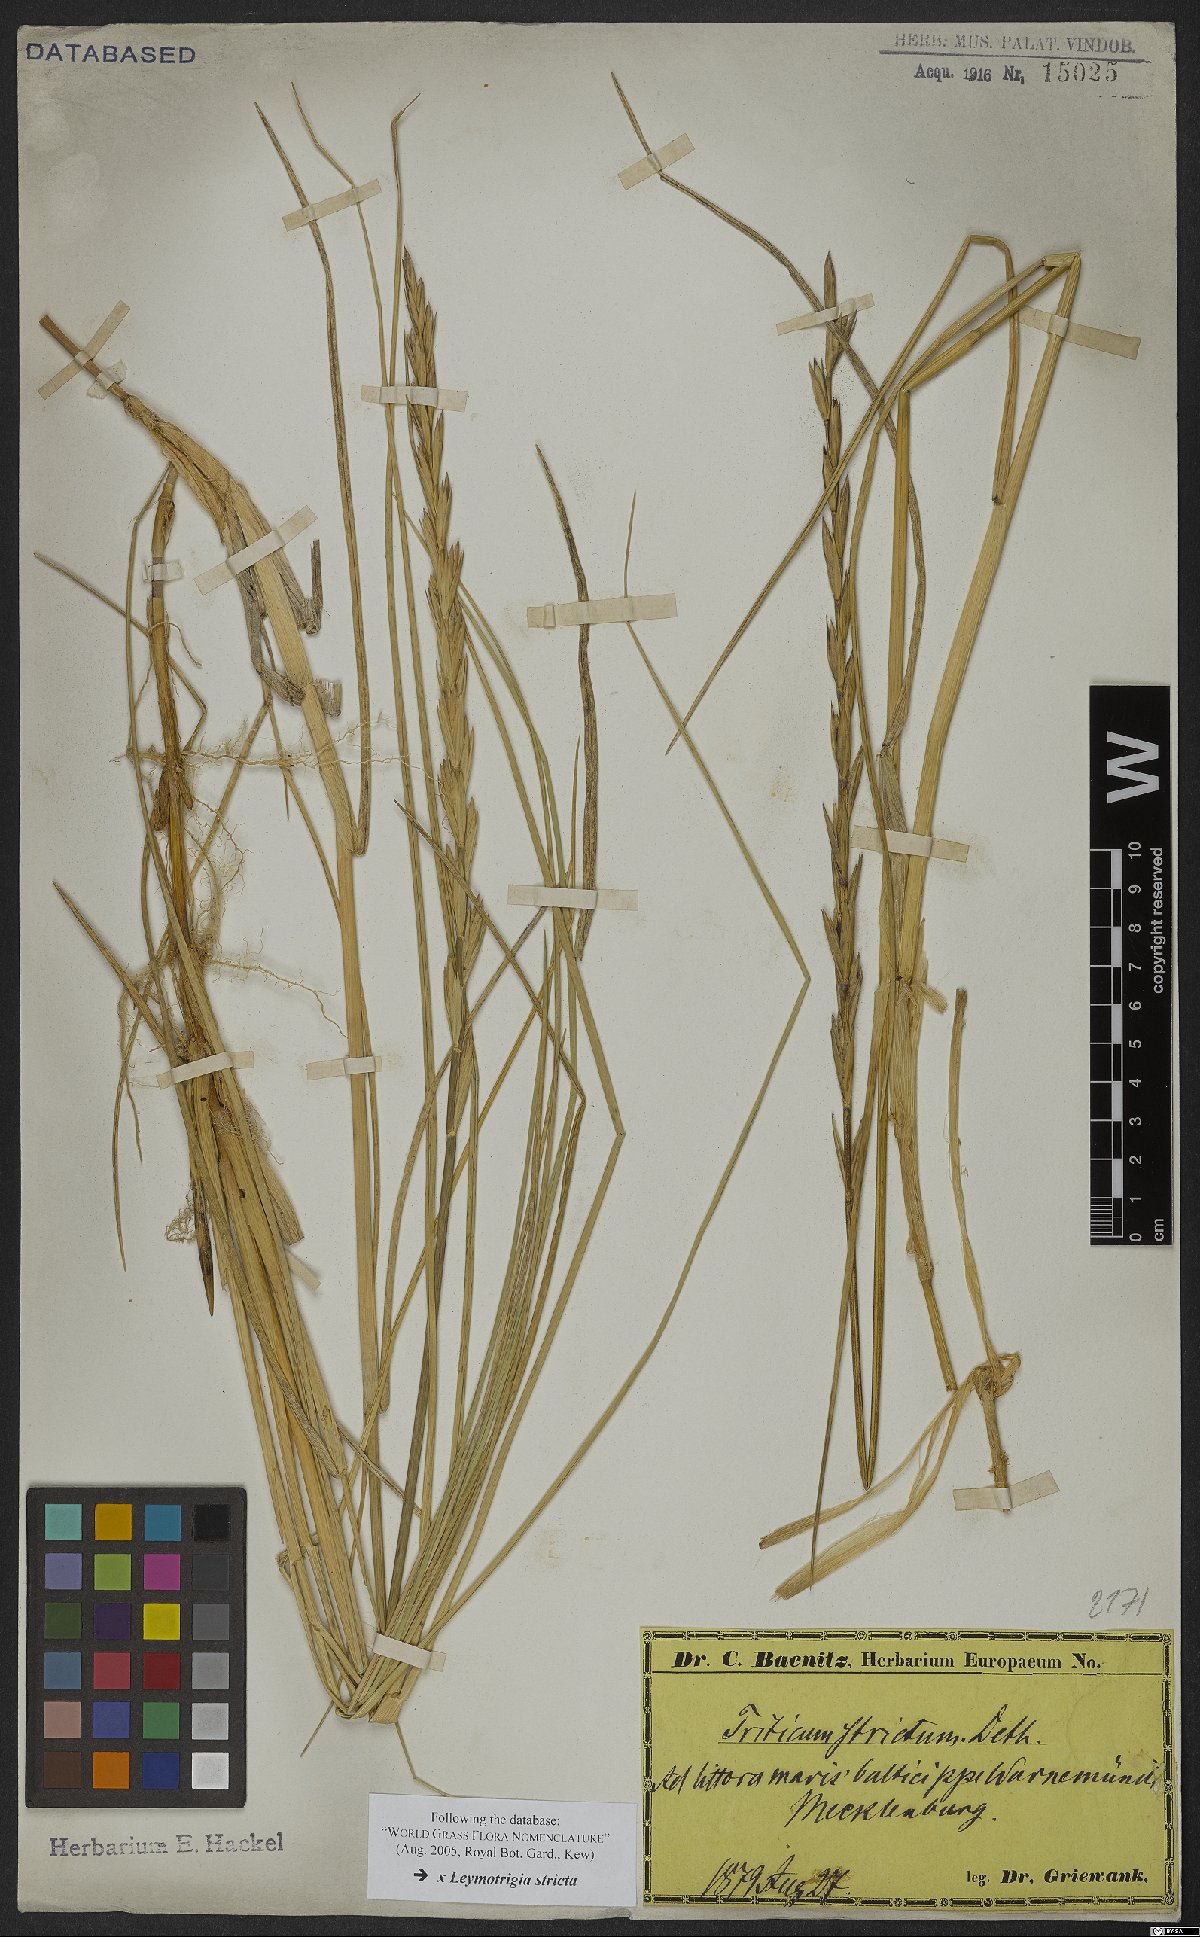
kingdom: Plantae
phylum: Tracheophyta
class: Liliopsida
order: Poales
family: Poaceae
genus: Elyleymus
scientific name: Elyleymus strictus
